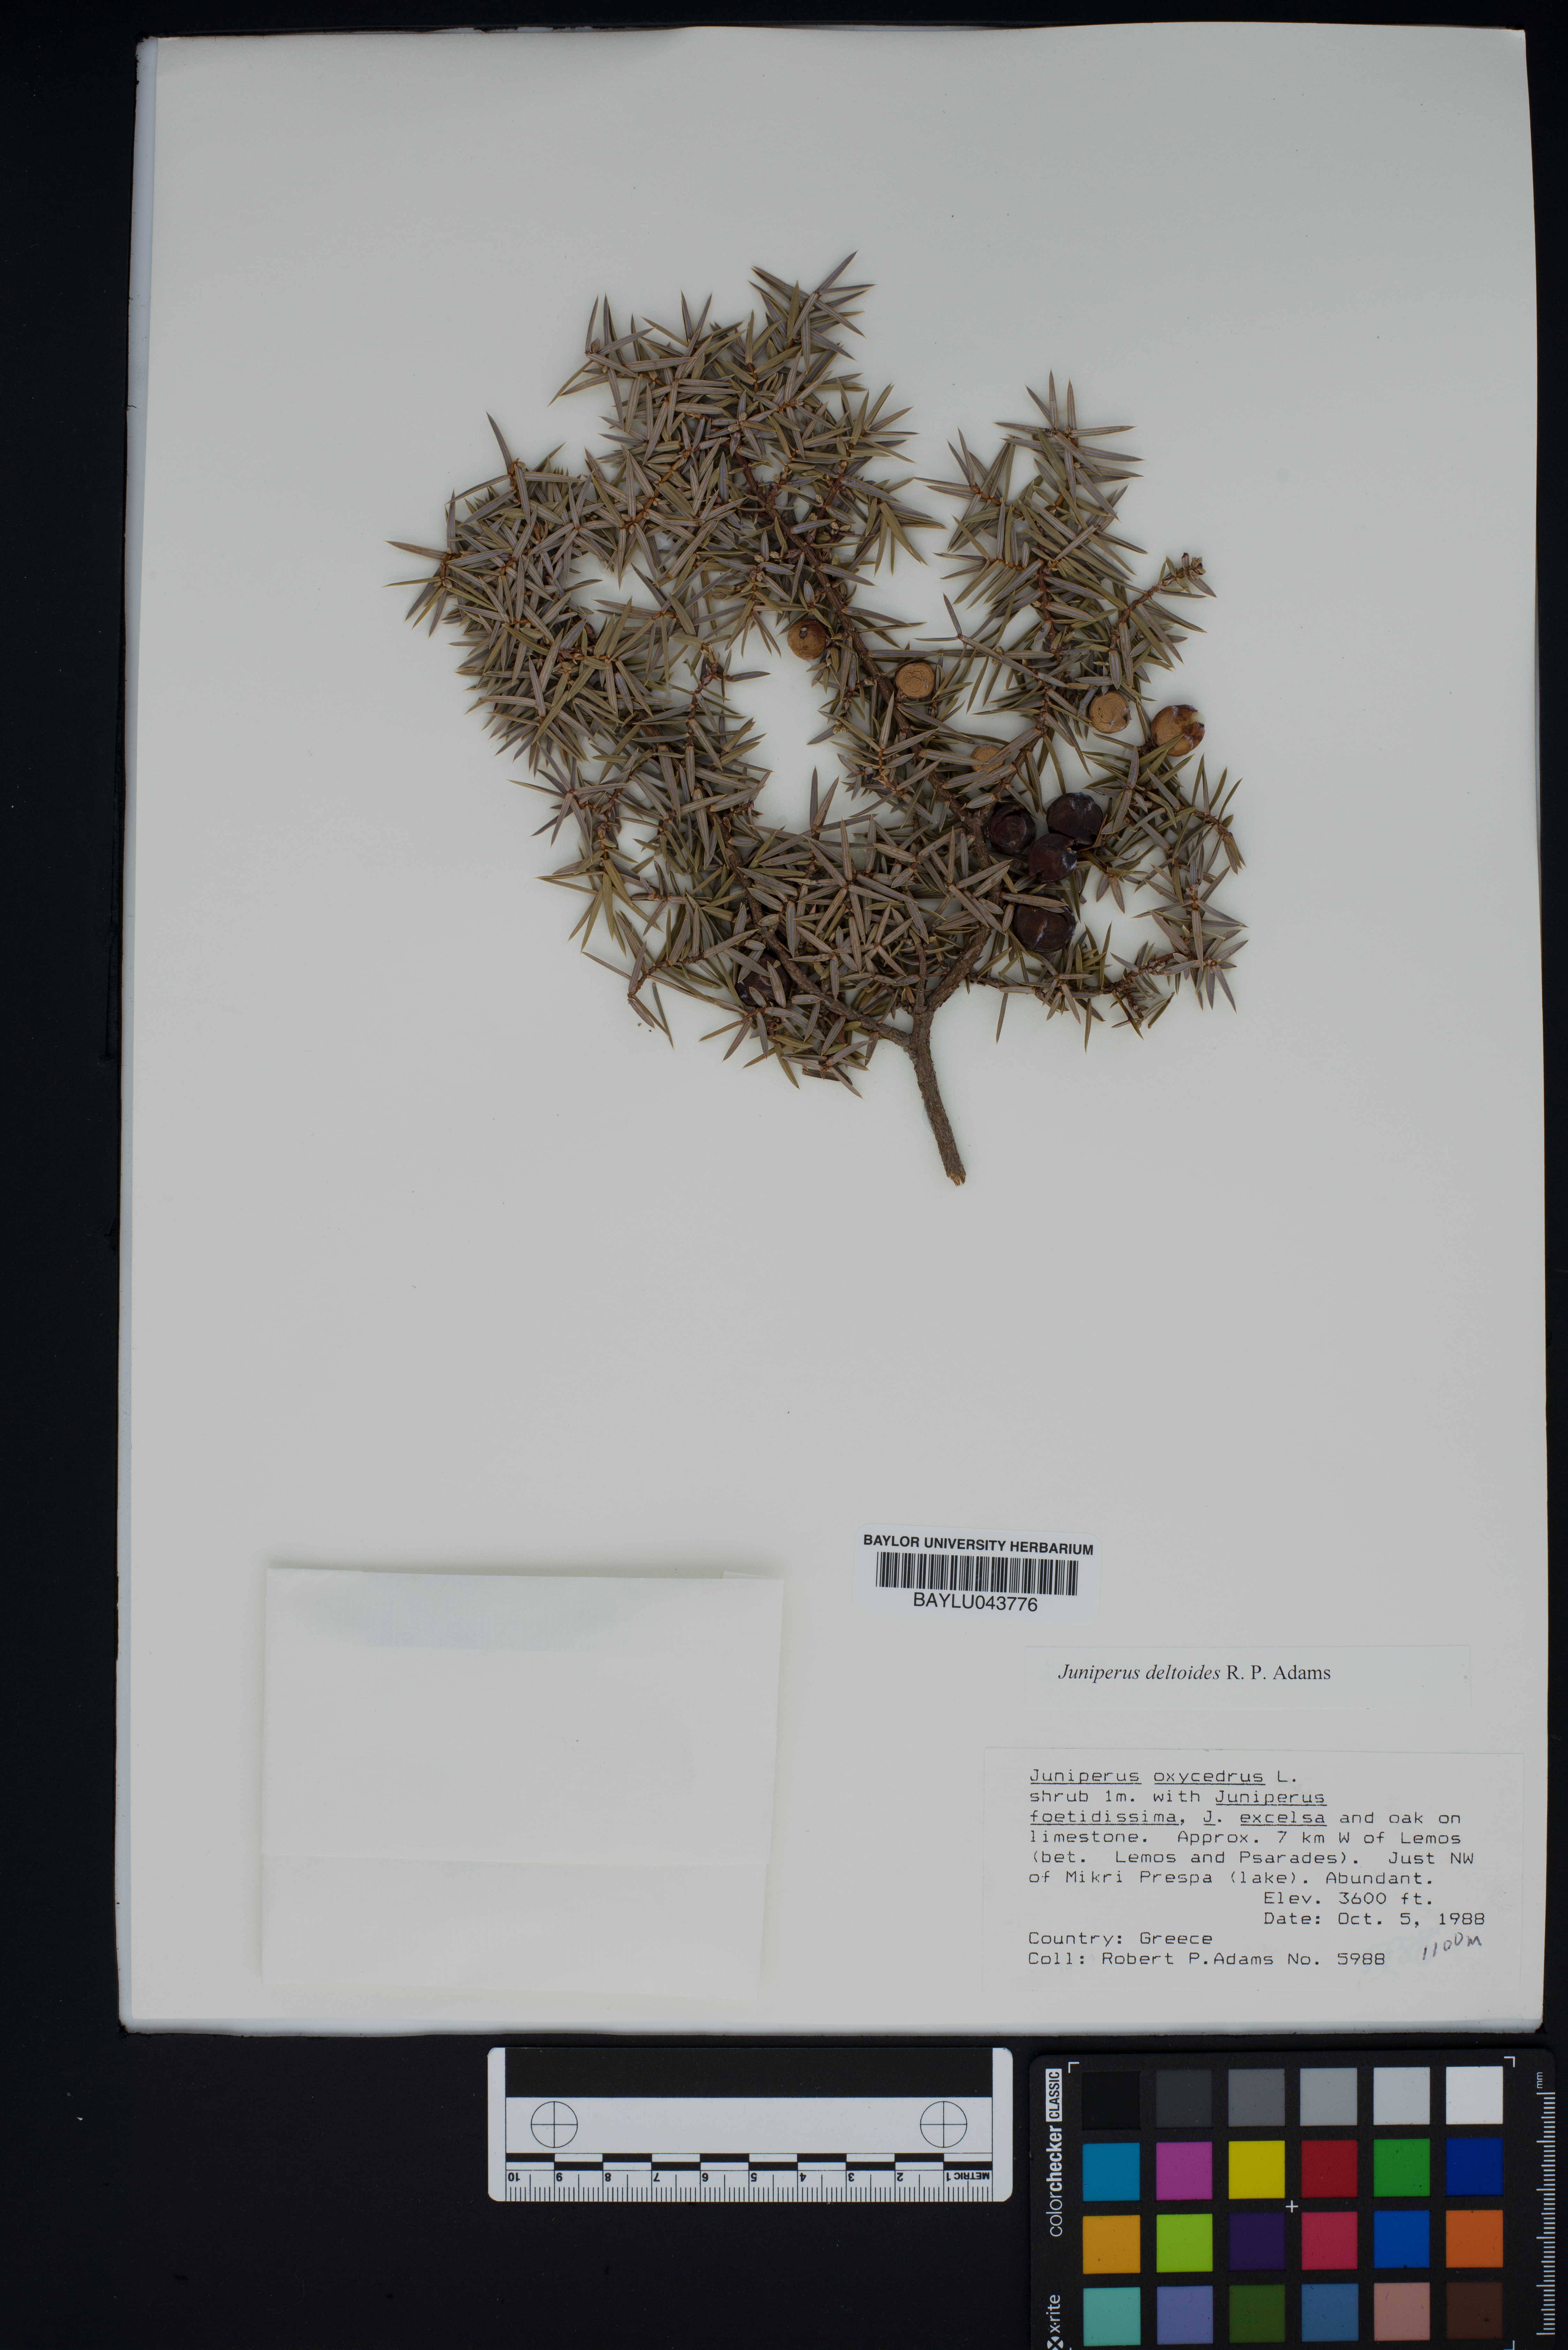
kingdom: Plantae
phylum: Tracheophyta
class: Pinopsida
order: Pinales
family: Cupressaceae
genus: Juniperus
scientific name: Juniperus oxycedrus
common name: Prickly juniper
